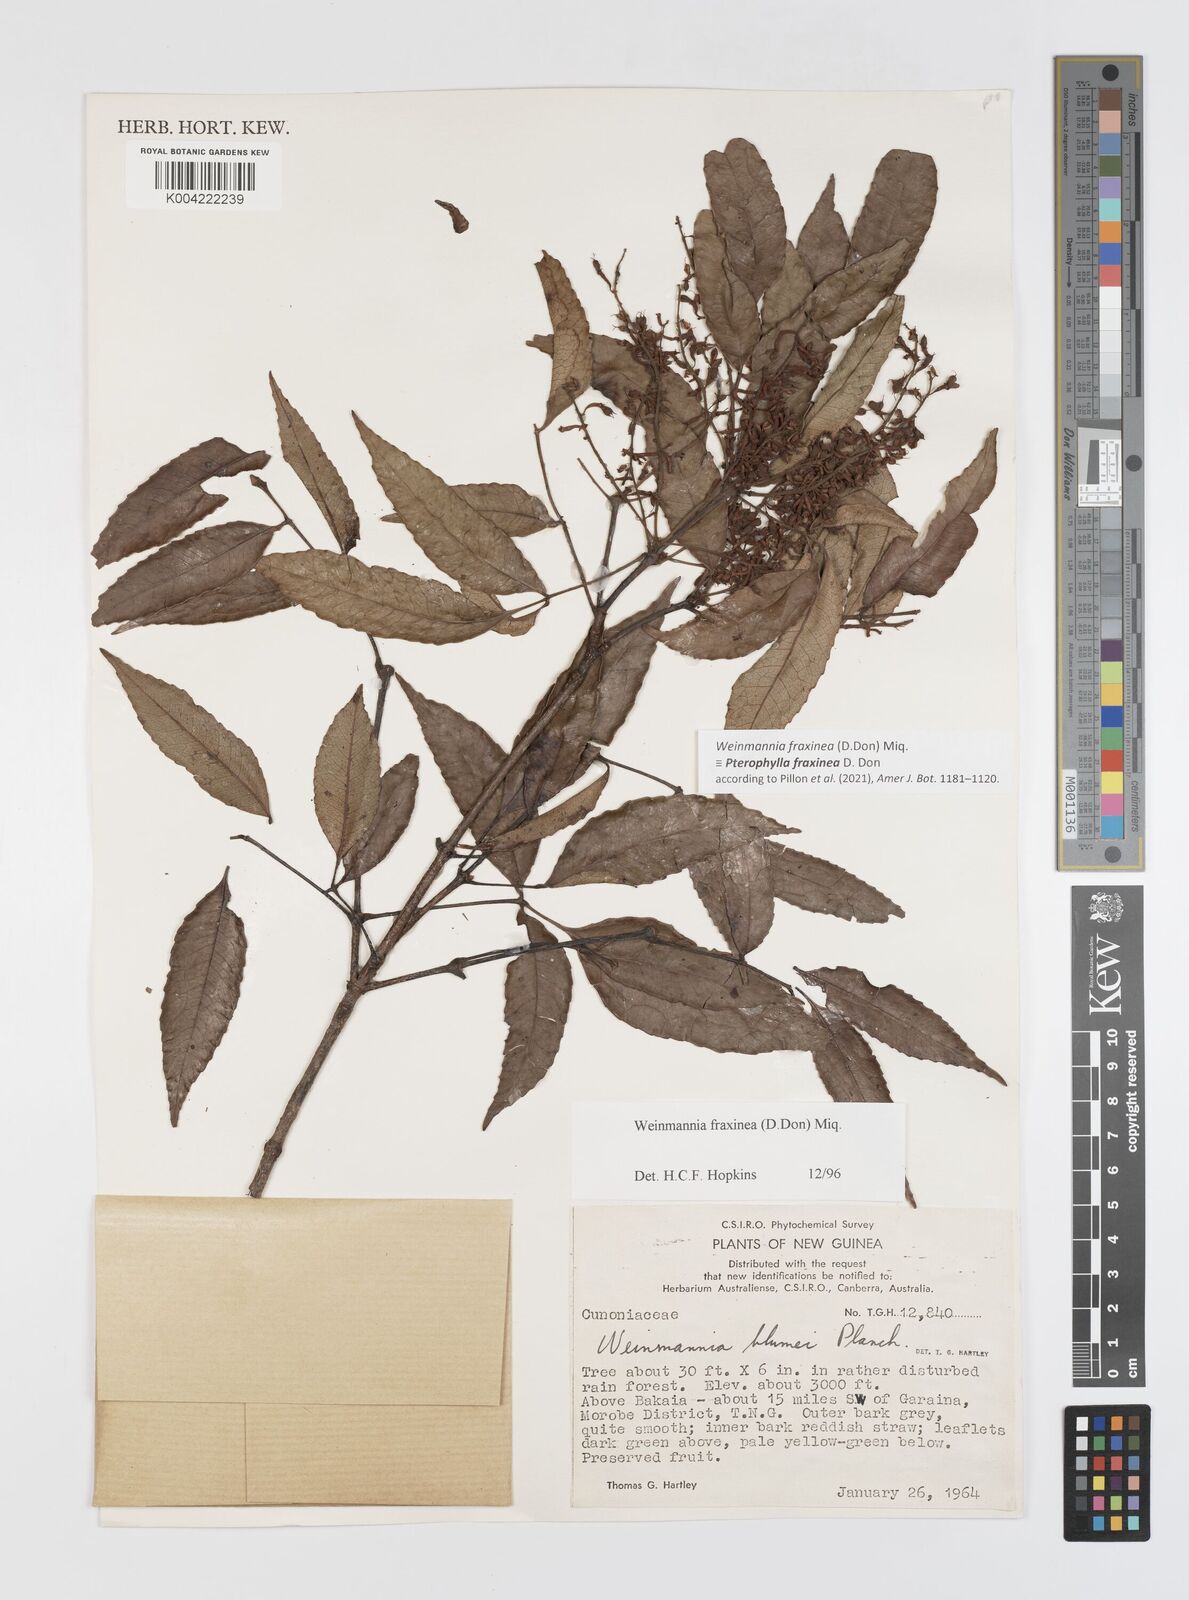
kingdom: Plantae
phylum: Tracheophyta
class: Magnoliopsida
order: Oxalidales
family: Cunoniaceae
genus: Pterophylla
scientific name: Pterophylla fraxinea
